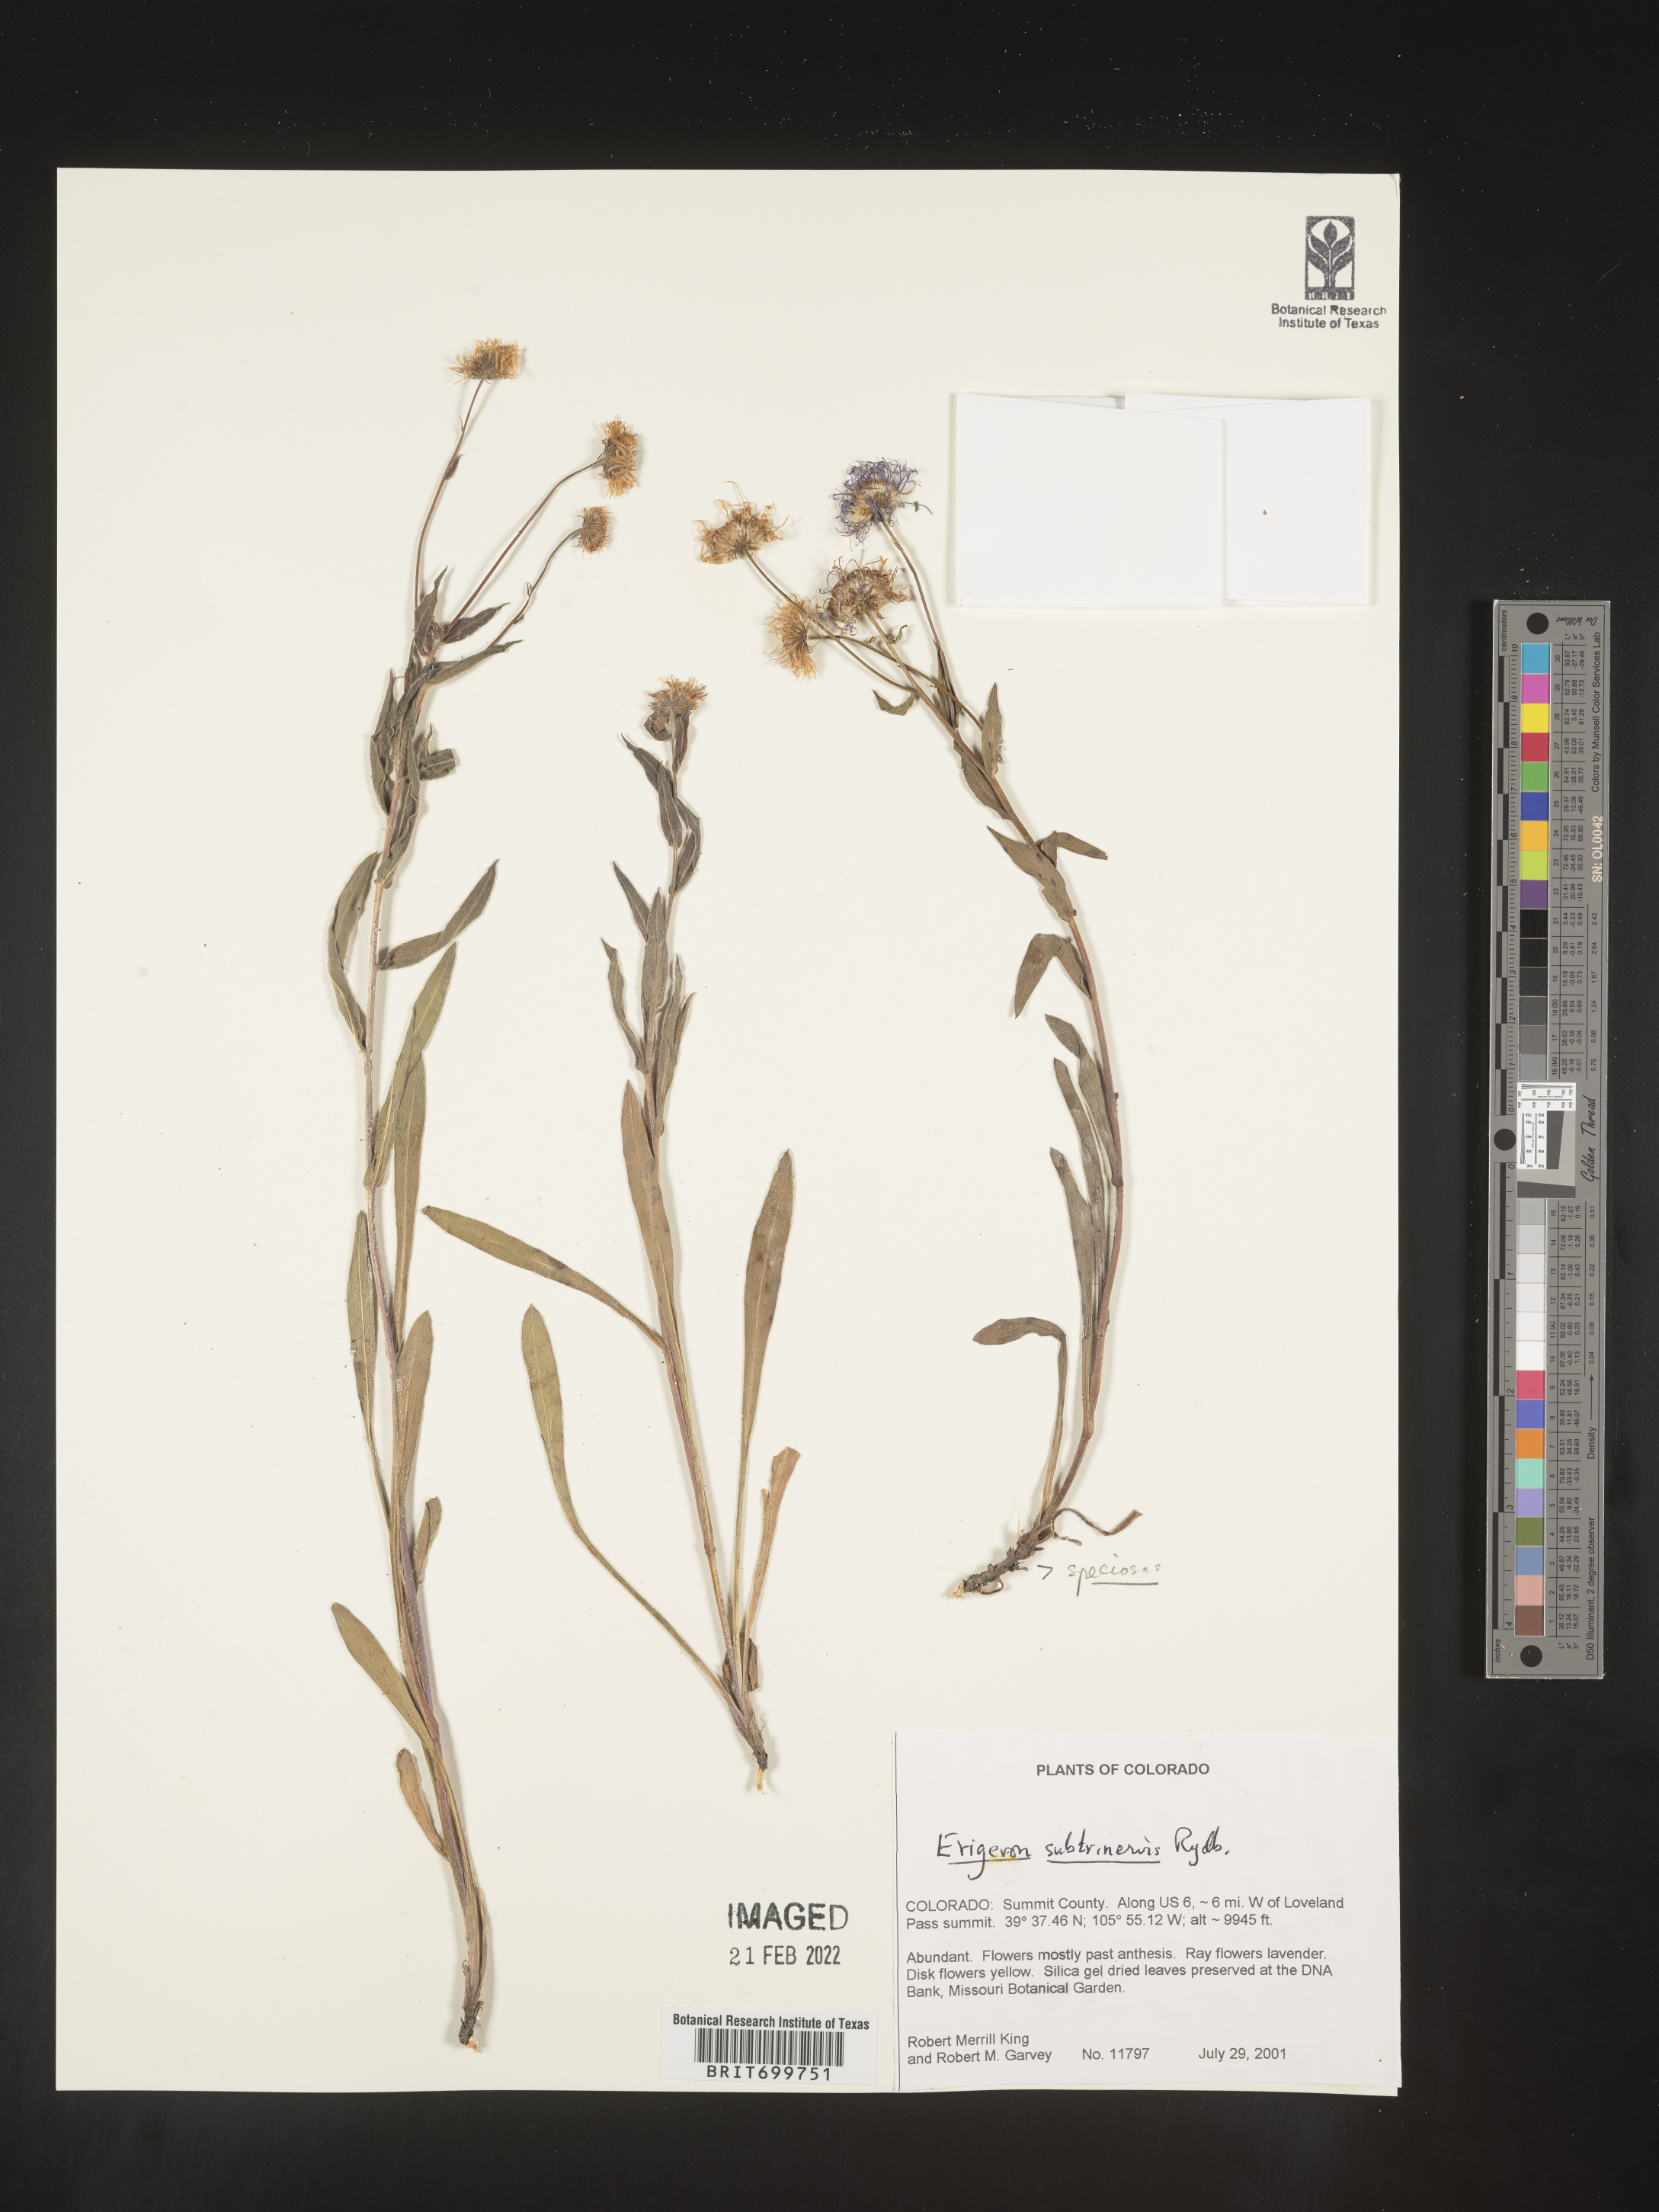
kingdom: Plantae
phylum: Tracheophyta
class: Magnoliopsida
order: Asterales
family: Asteraceae
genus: Erigeron
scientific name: Erigeron subtrinervis
